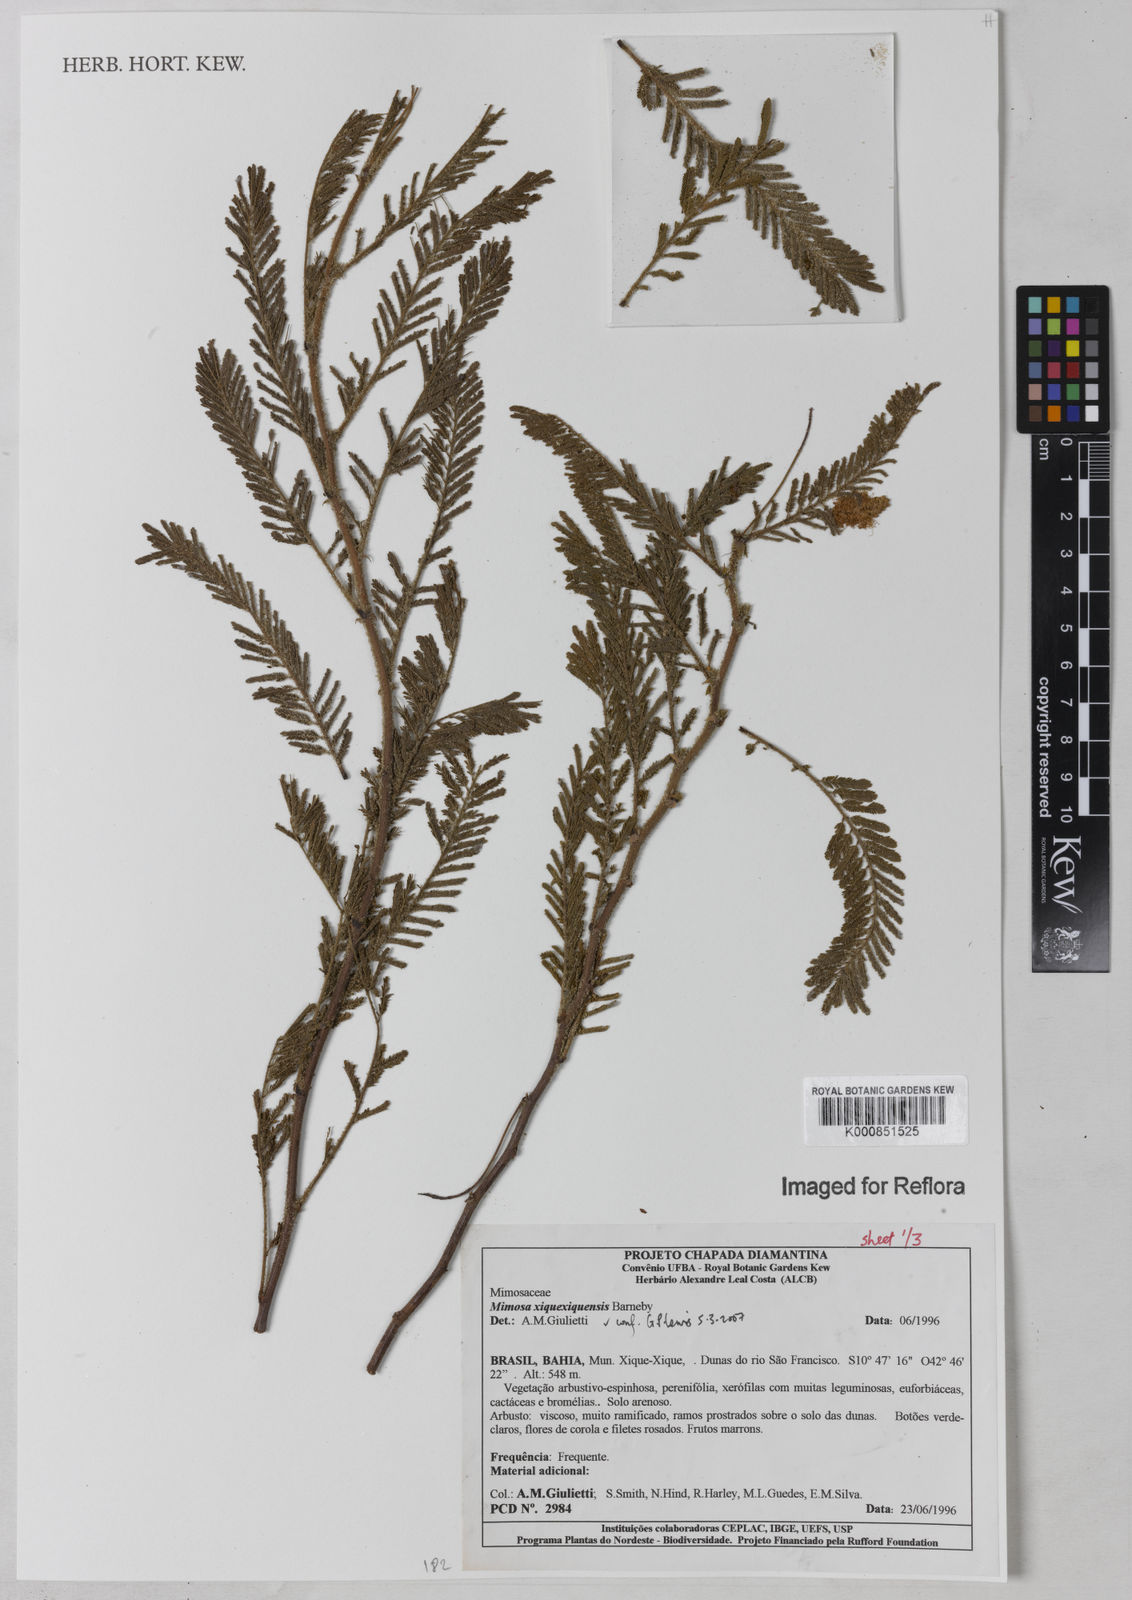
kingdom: Plantae
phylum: Tracheophyta
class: Magnoliopsida
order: Fabales
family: Fabaceae
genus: Mimosa
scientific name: Mimosa xiquexiquensis
